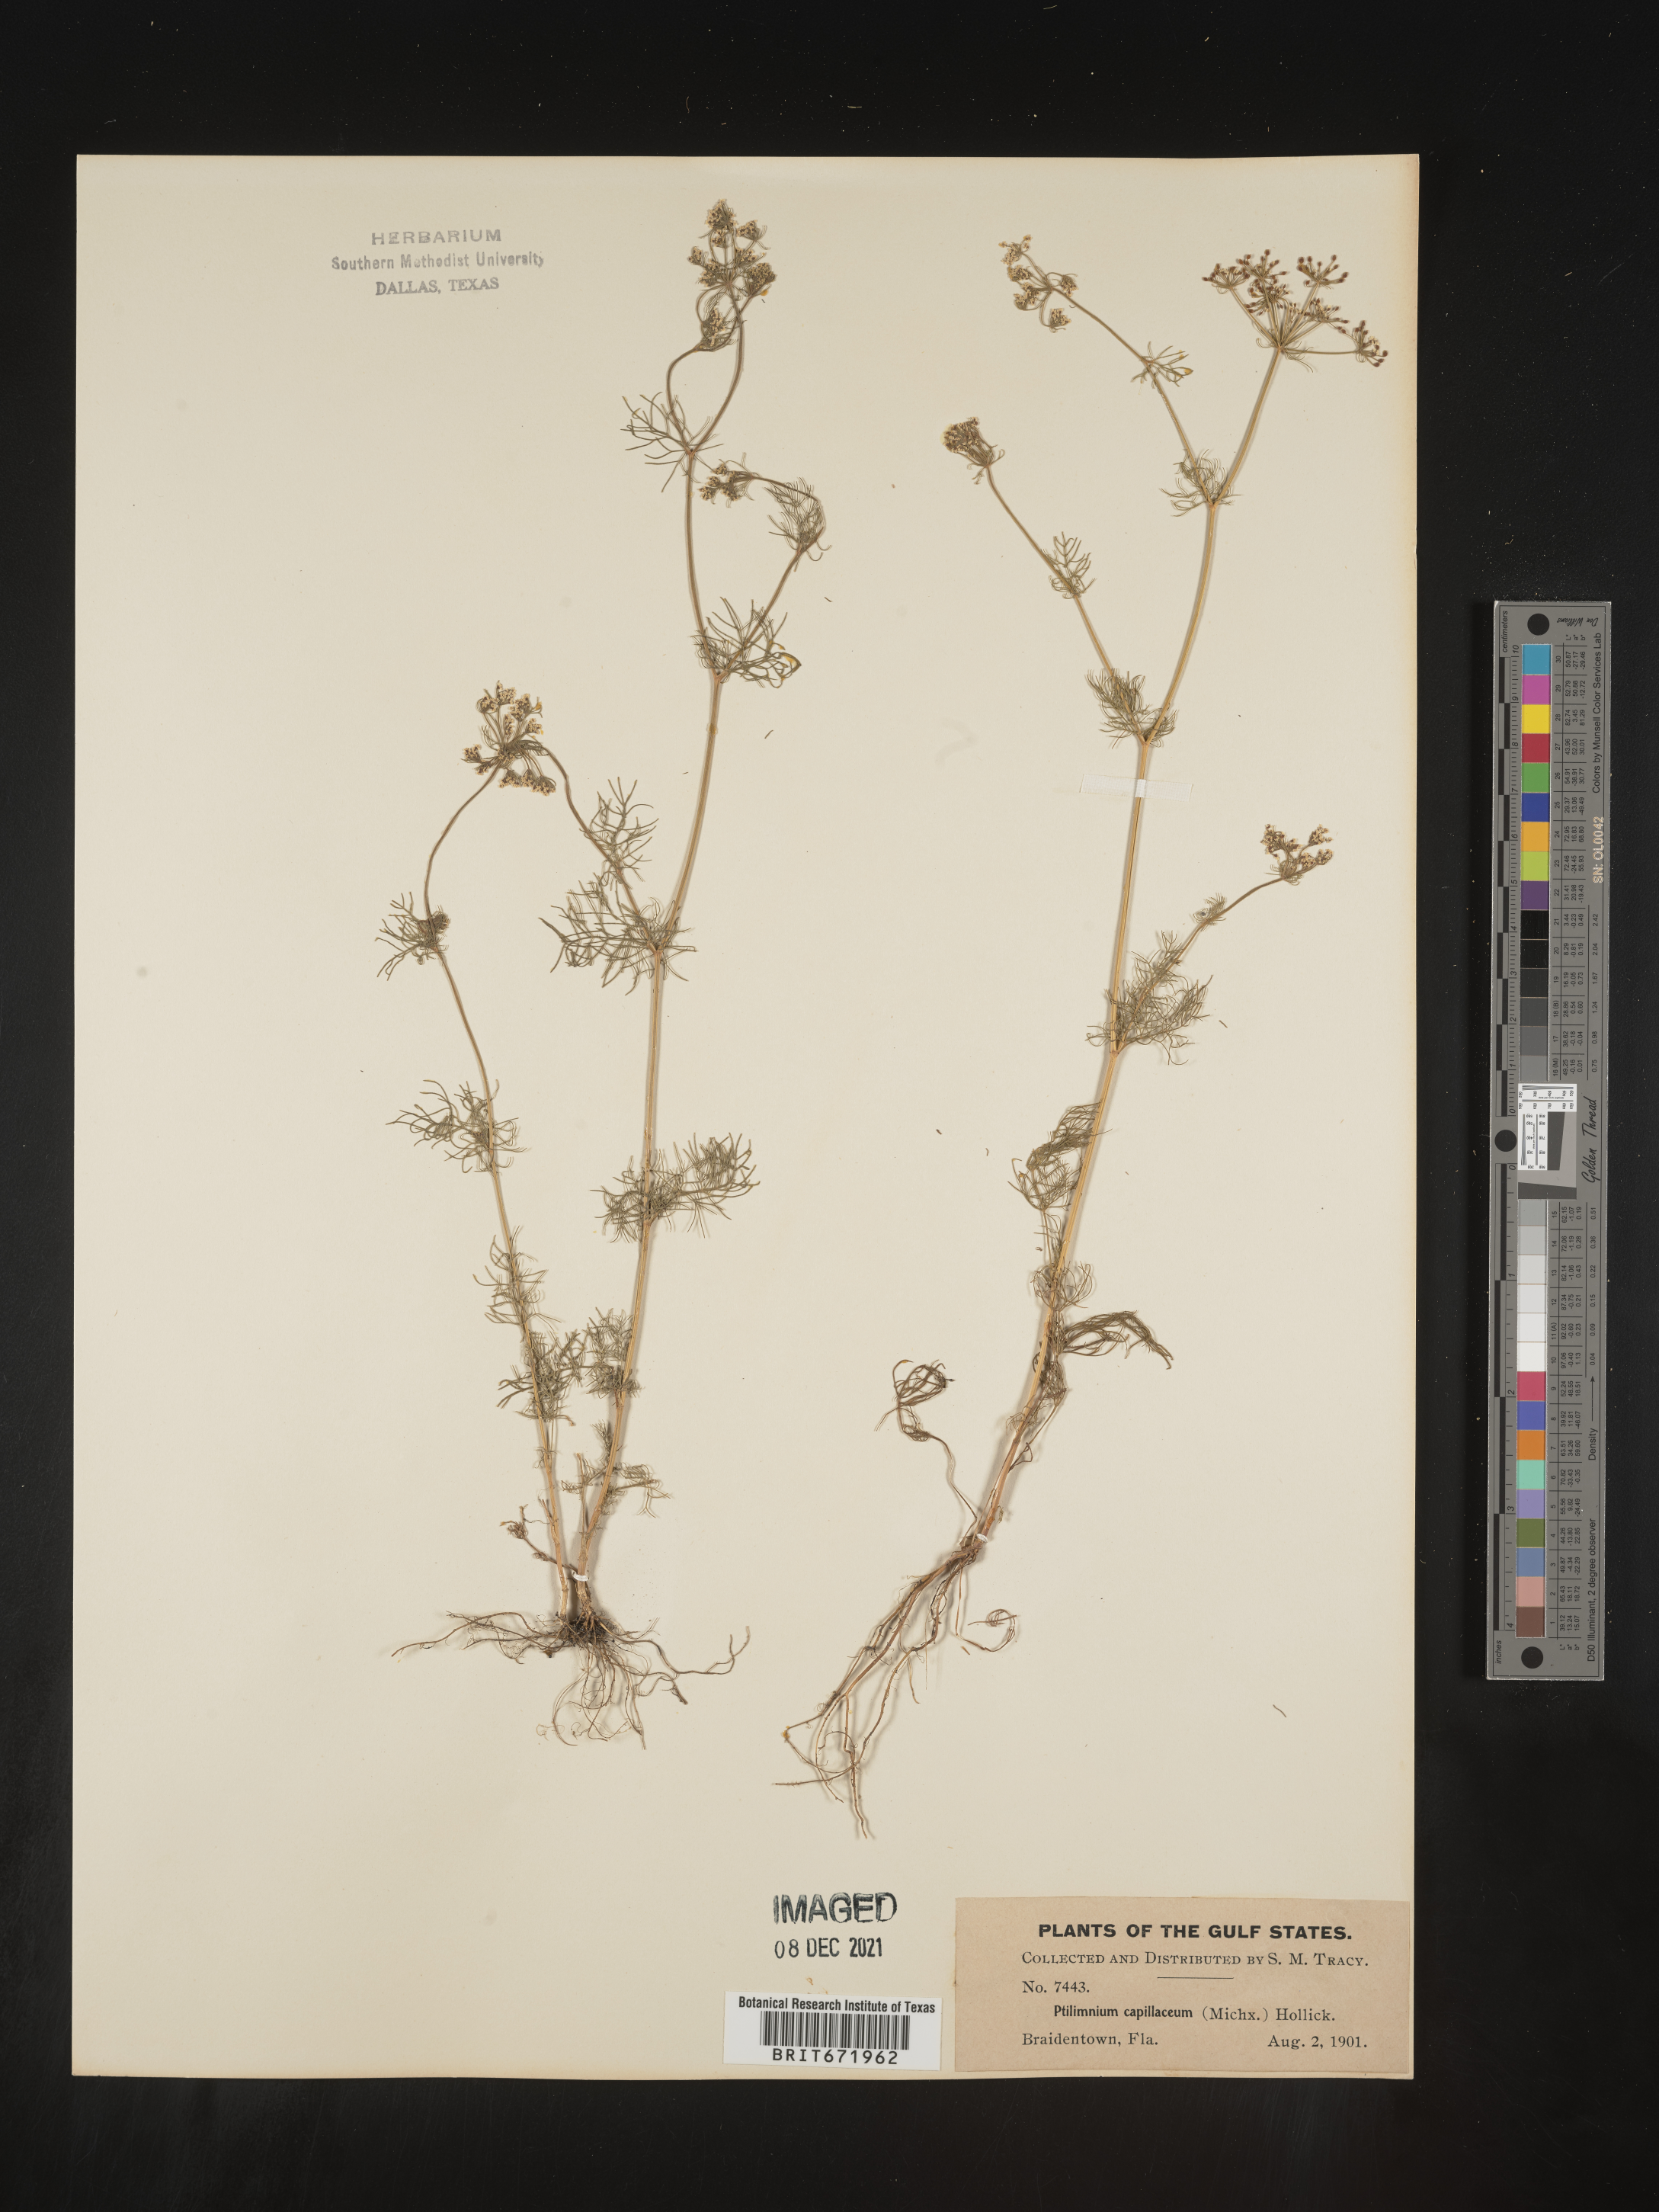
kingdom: Plantae
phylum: Tracheophyta
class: Magnoliopsida
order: Apiales
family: Apiaceae
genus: Ptilimnium
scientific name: Ptilimnium capillaceum
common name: Herbwilliam
